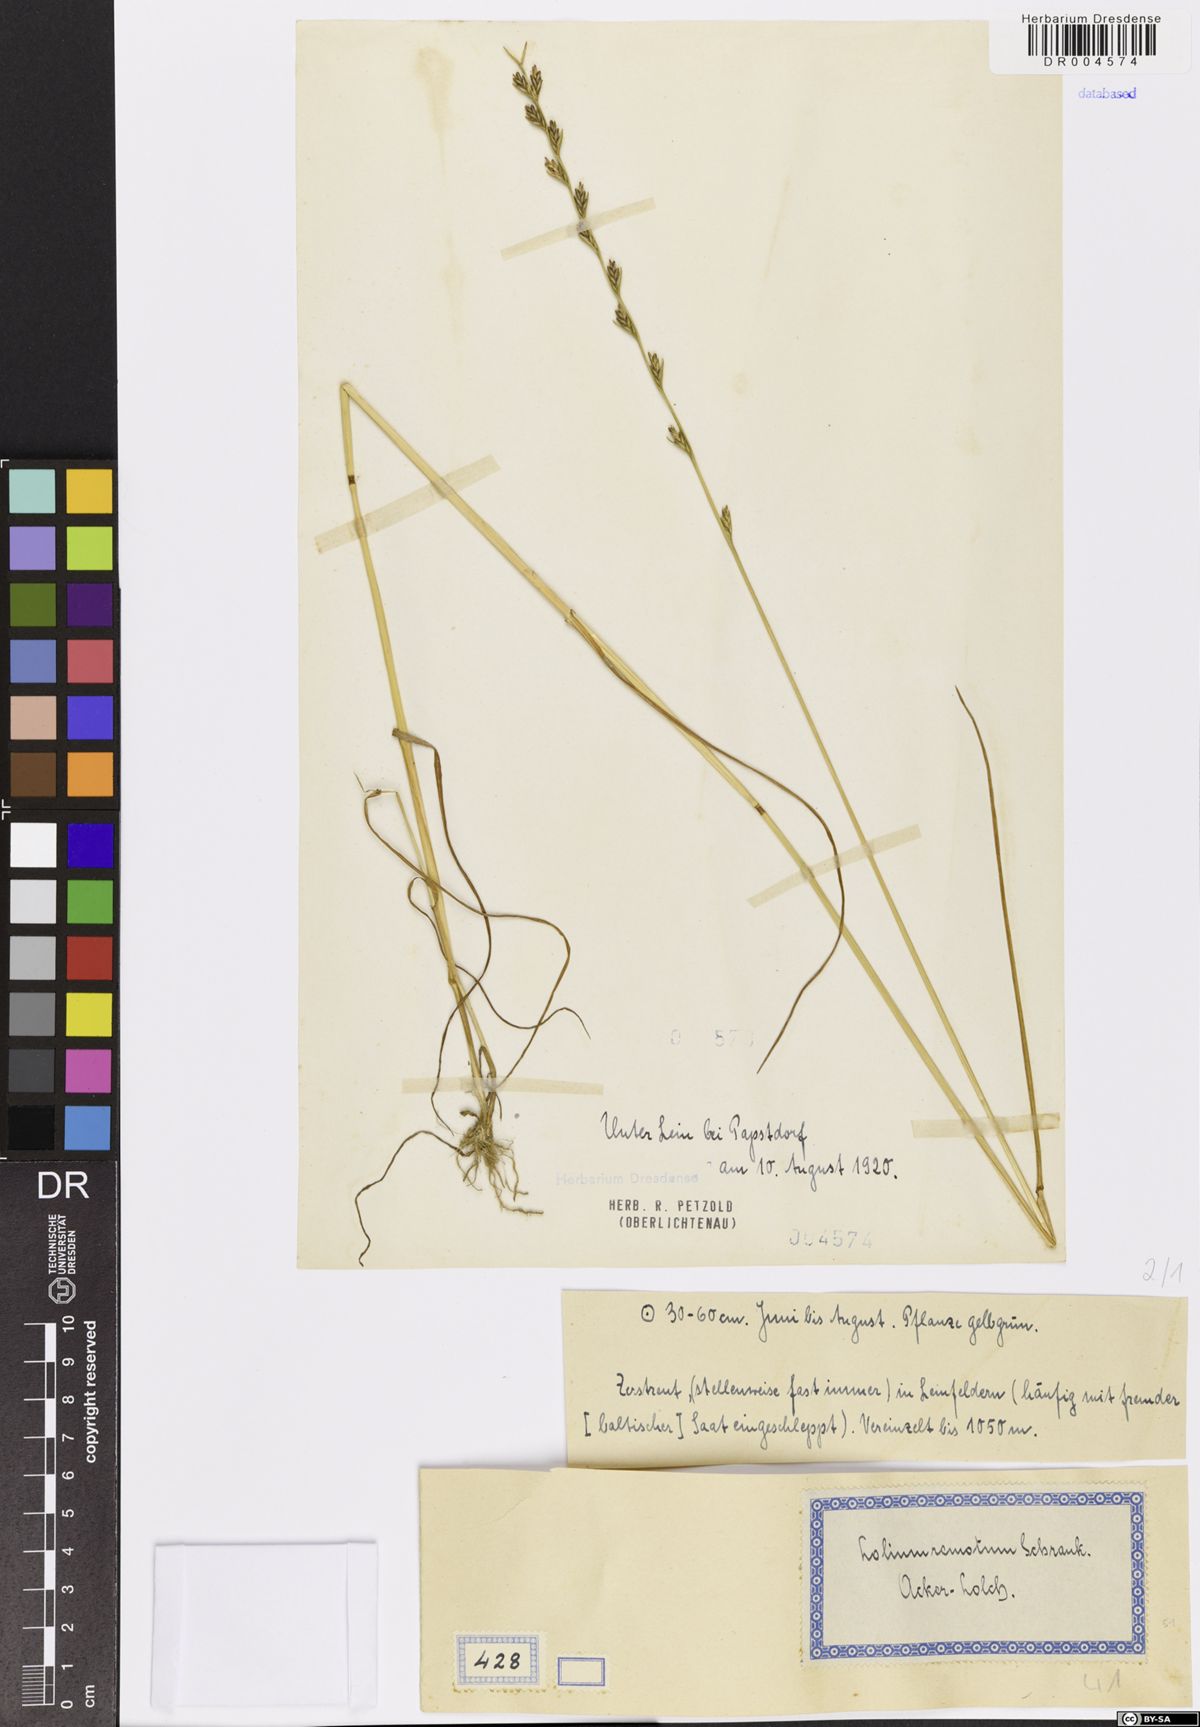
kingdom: Plantae
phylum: Tracheophyta
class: Liliopsida
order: Poales
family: Poaceae
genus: Lolium
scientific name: Lolium remotum
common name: Flaxfield rye-grass
